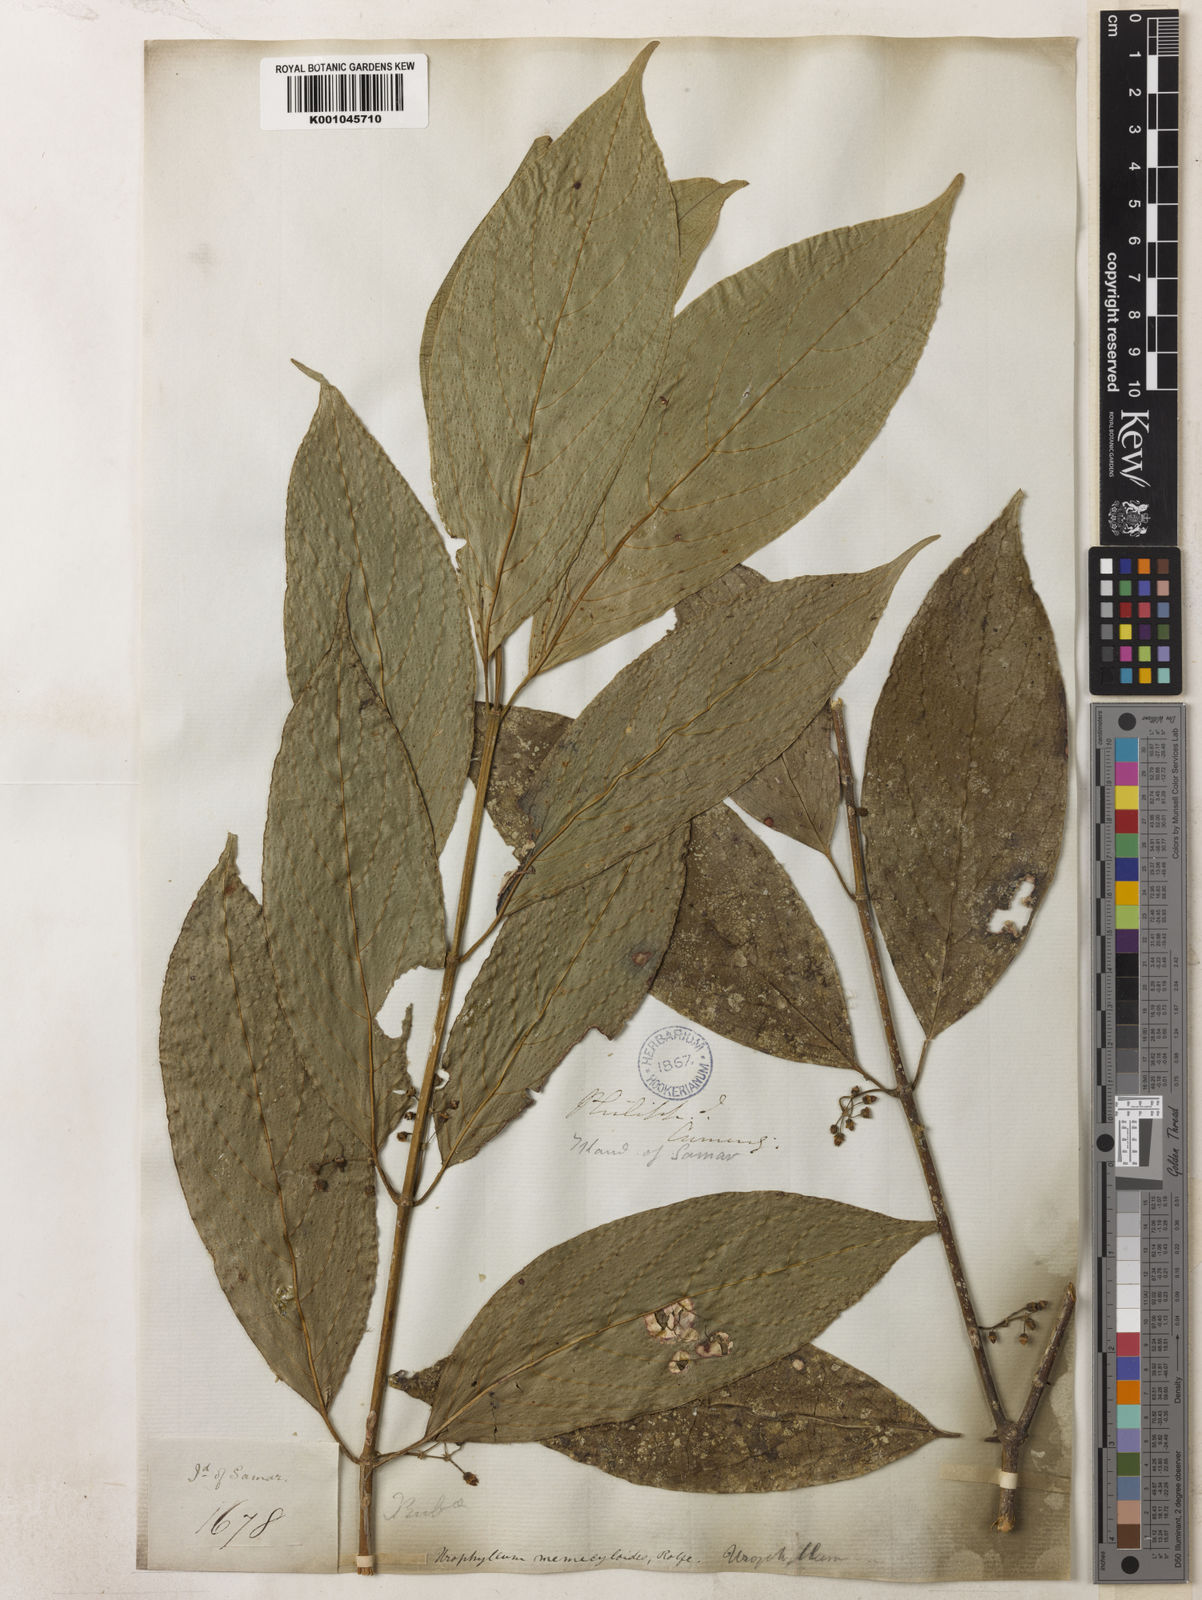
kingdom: Plantae
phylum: Tracheophyta
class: Magnoliopsida
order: Gentianales
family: Rubiaceae
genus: Urophyllum
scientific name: Urophyllum memecyloides
